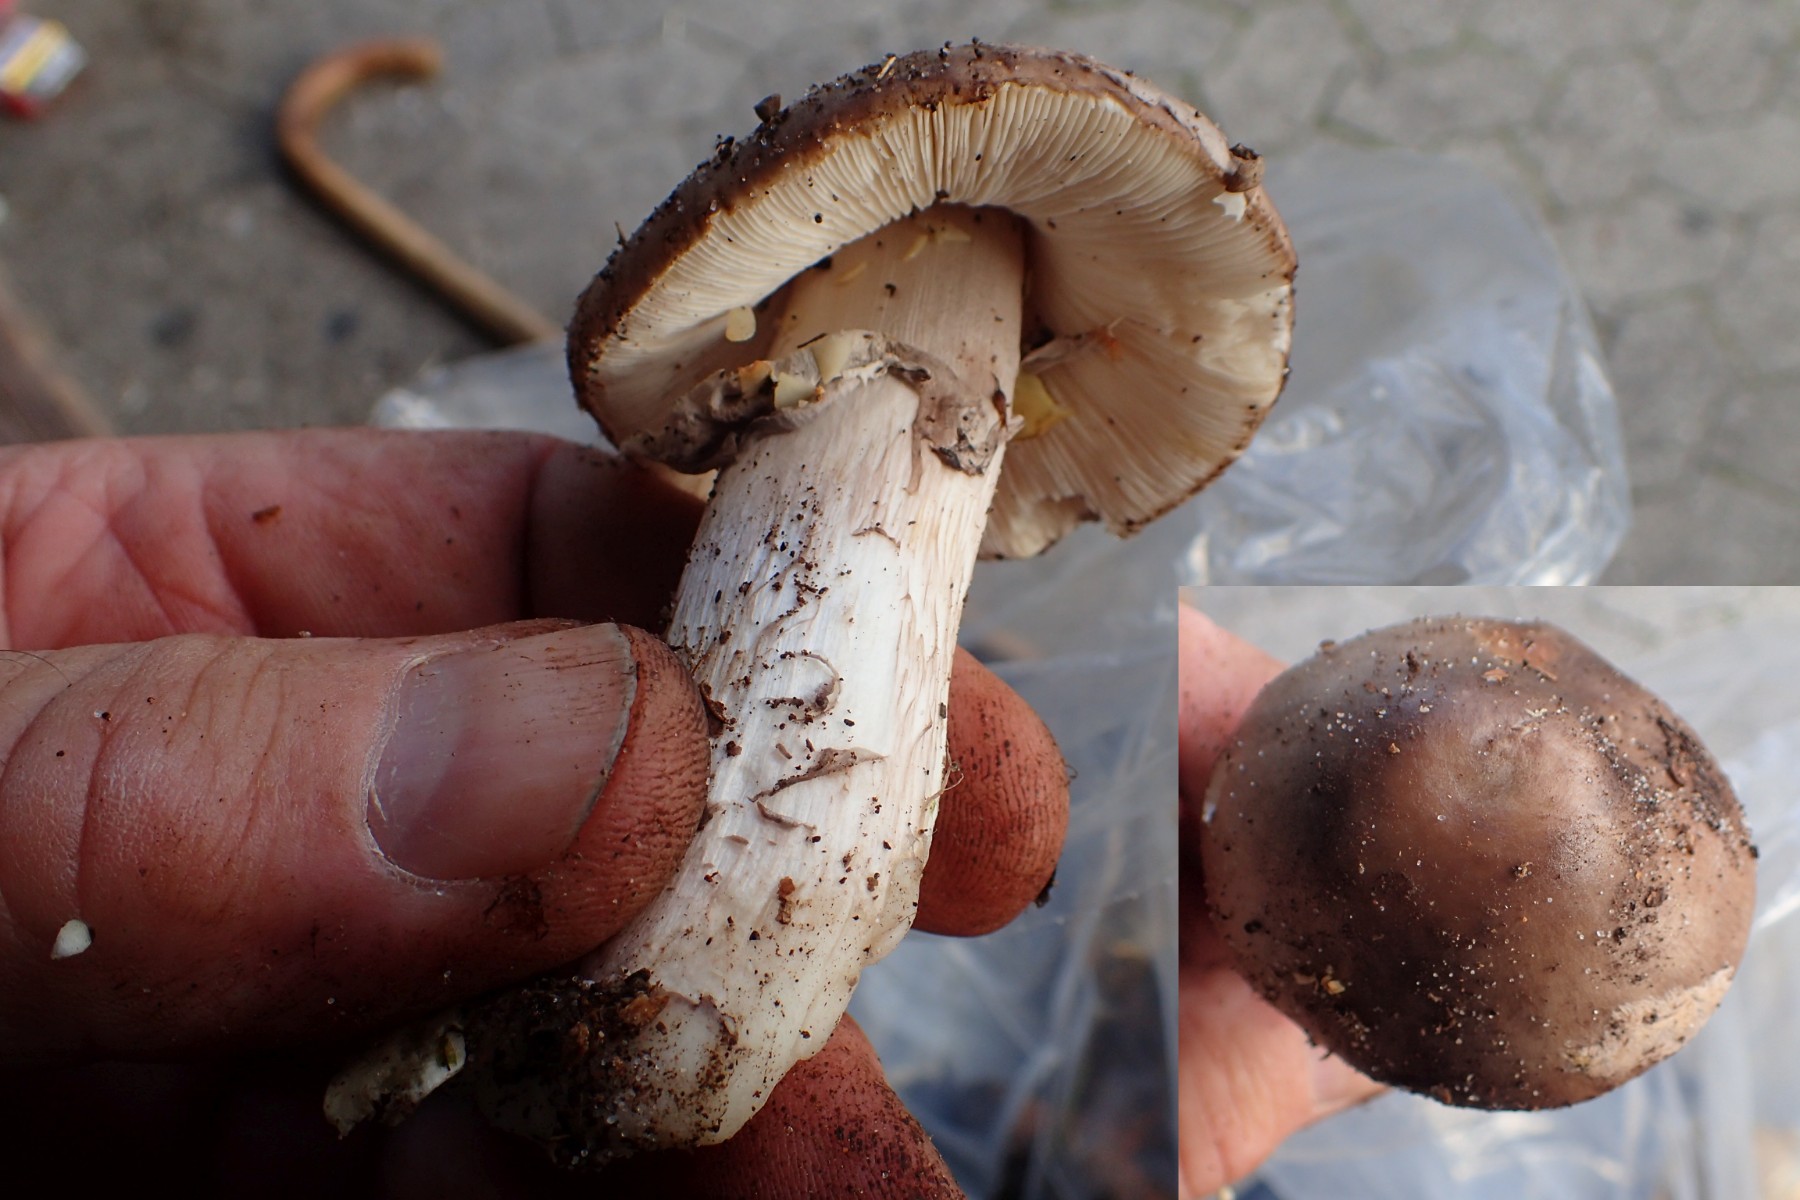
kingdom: Fungi
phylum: Basidiomycota
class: Agaricomycetes
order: Agaricales
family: Amanitaceae
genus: Amanita
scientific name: Amanita porphyria
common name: porfyr-fluesvamp
